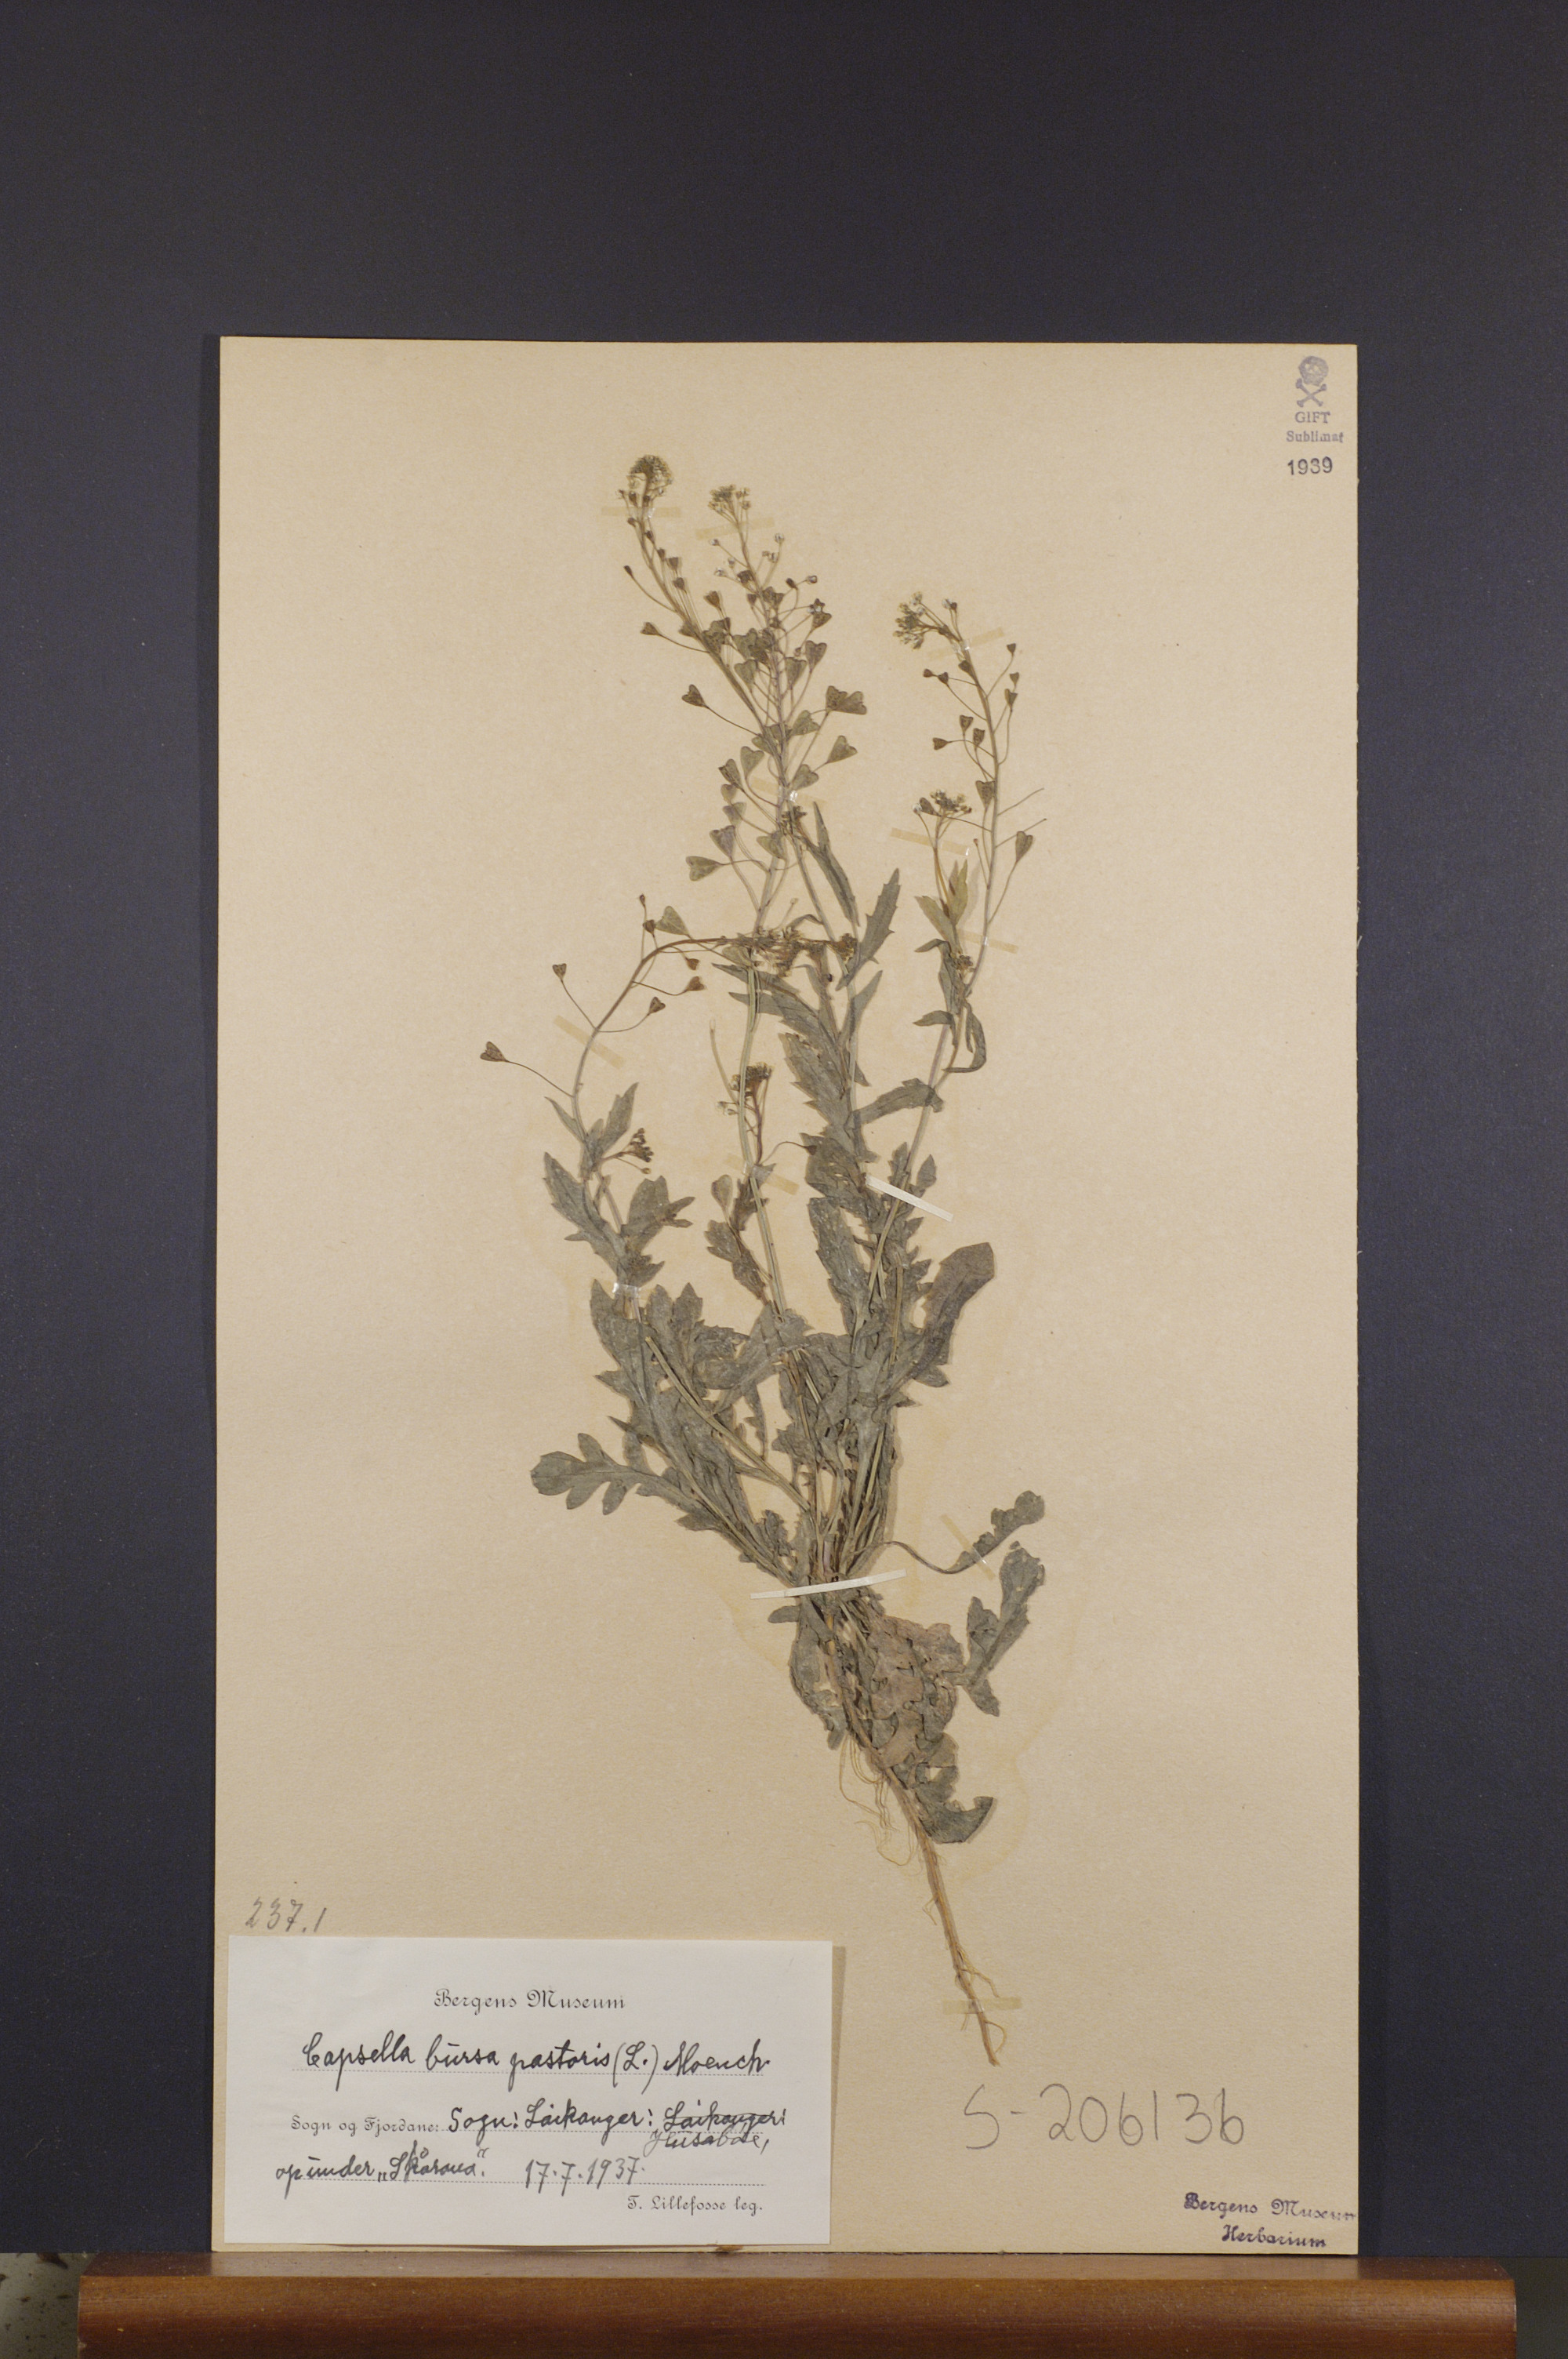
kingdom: Plantae
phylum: Tracheophyta
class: Magnoliopsida
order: Brassicales
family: Brassicaceae
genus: Capsella
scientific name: Capsella bursa-pastoris
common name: Shepherd's purse
